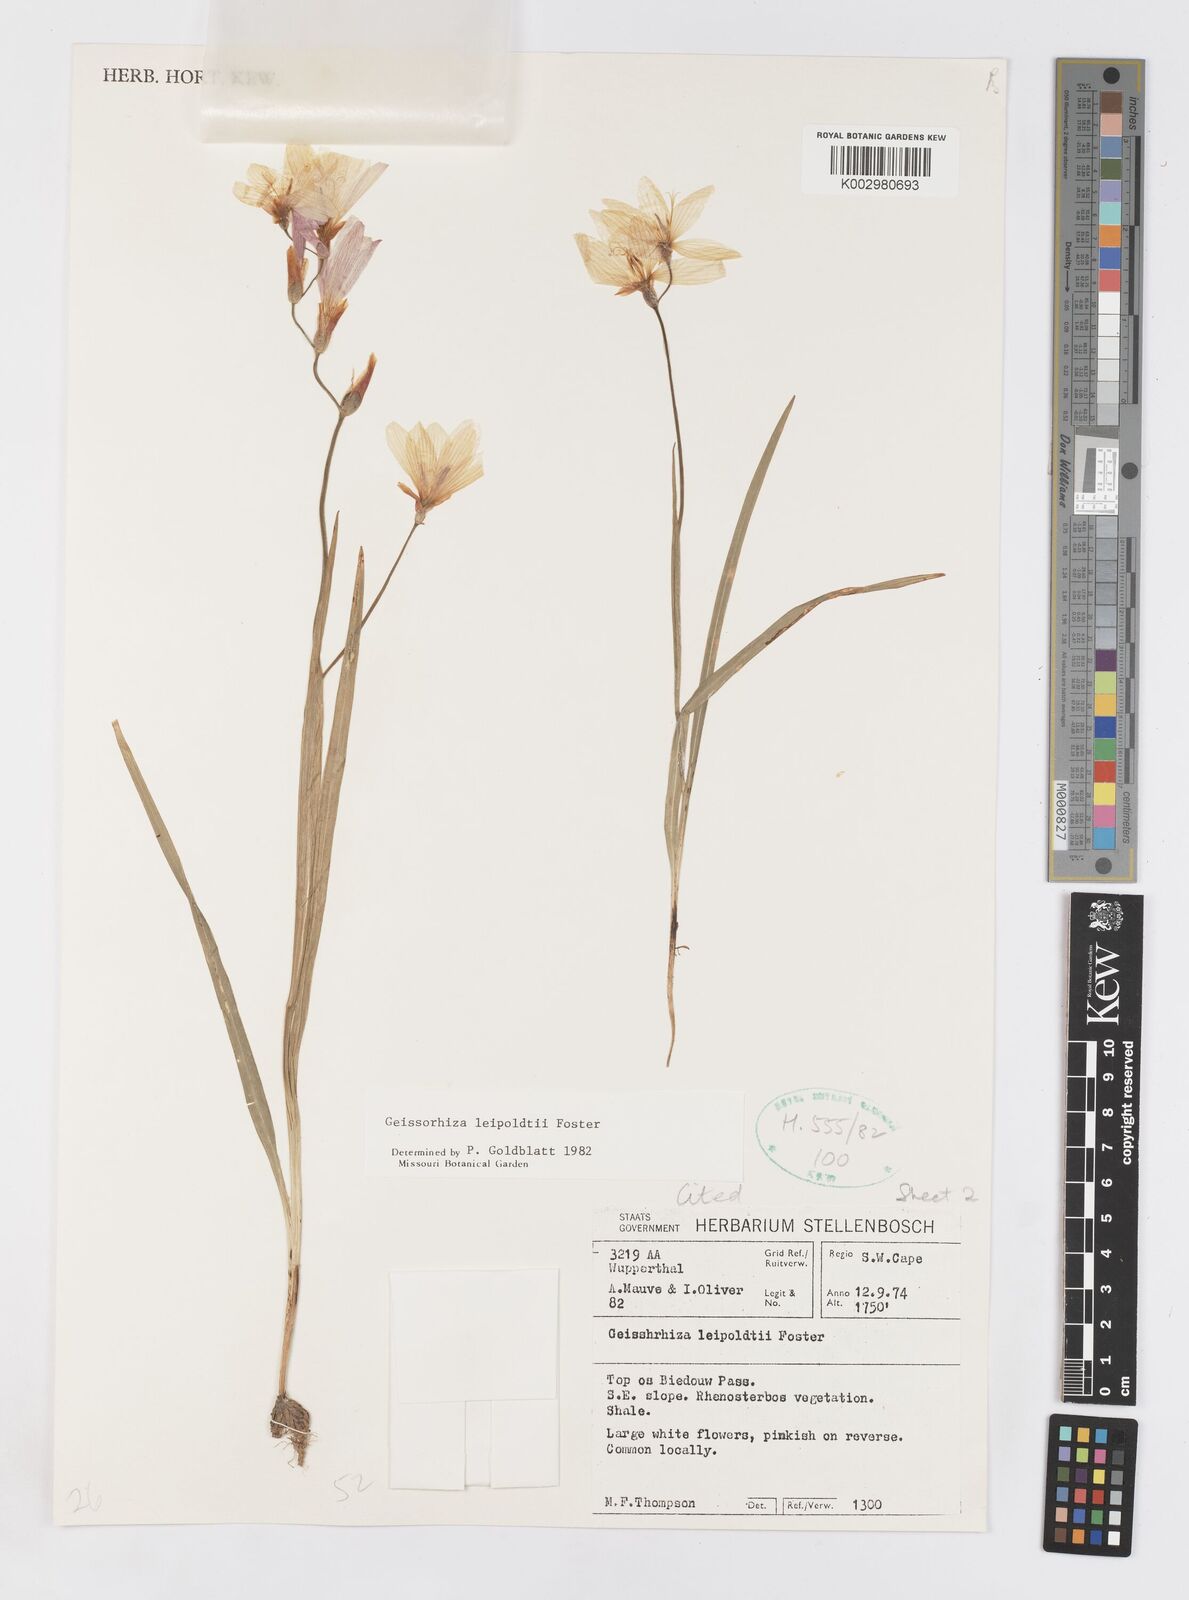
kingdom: Plantae
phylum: Tracheophyta
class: Liliopsida
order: Asparagales
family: Iridaceae
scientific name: Iridaceae
